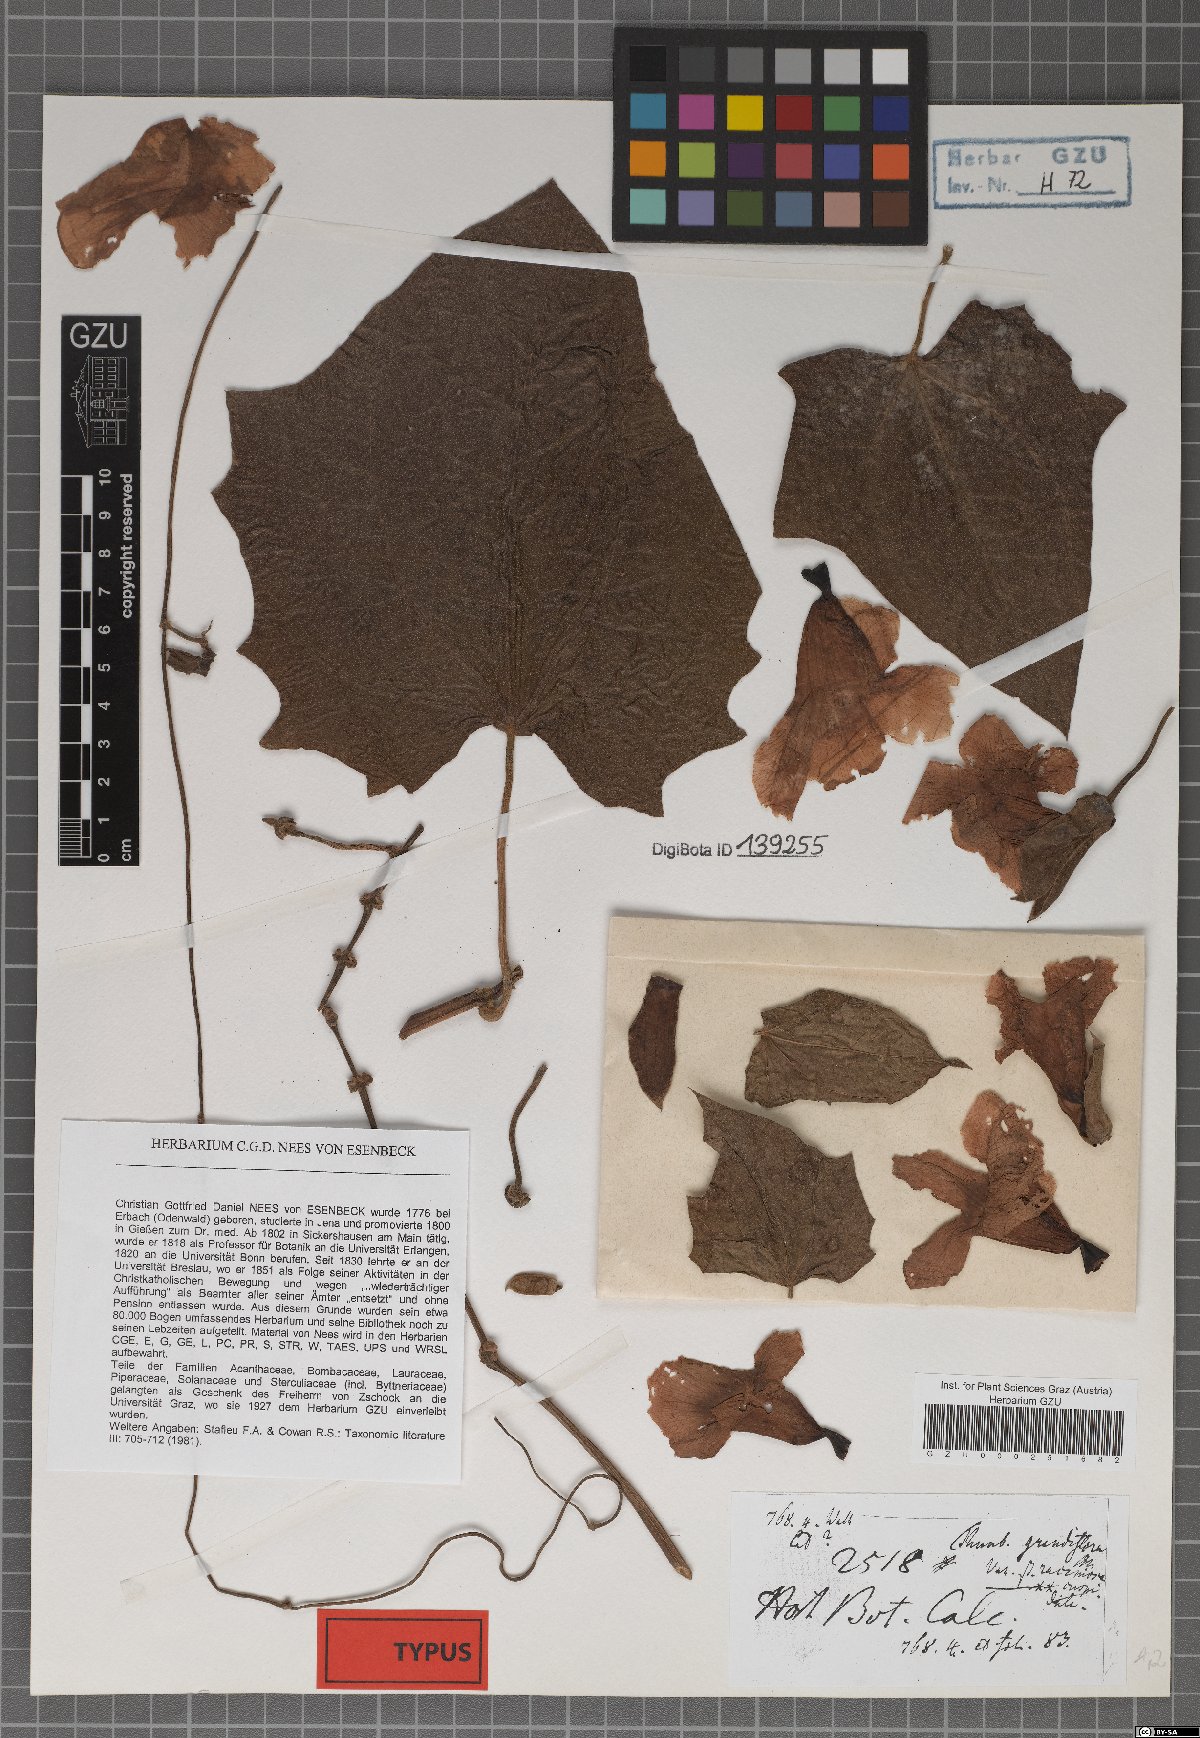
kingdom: Plantae
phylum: Tracheophyta
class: Magnoliopsida
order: Lamiales
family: Acanthaceae
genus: Thunbergia
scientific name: Thunbergia grandiflora
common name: Bengal trumpet
